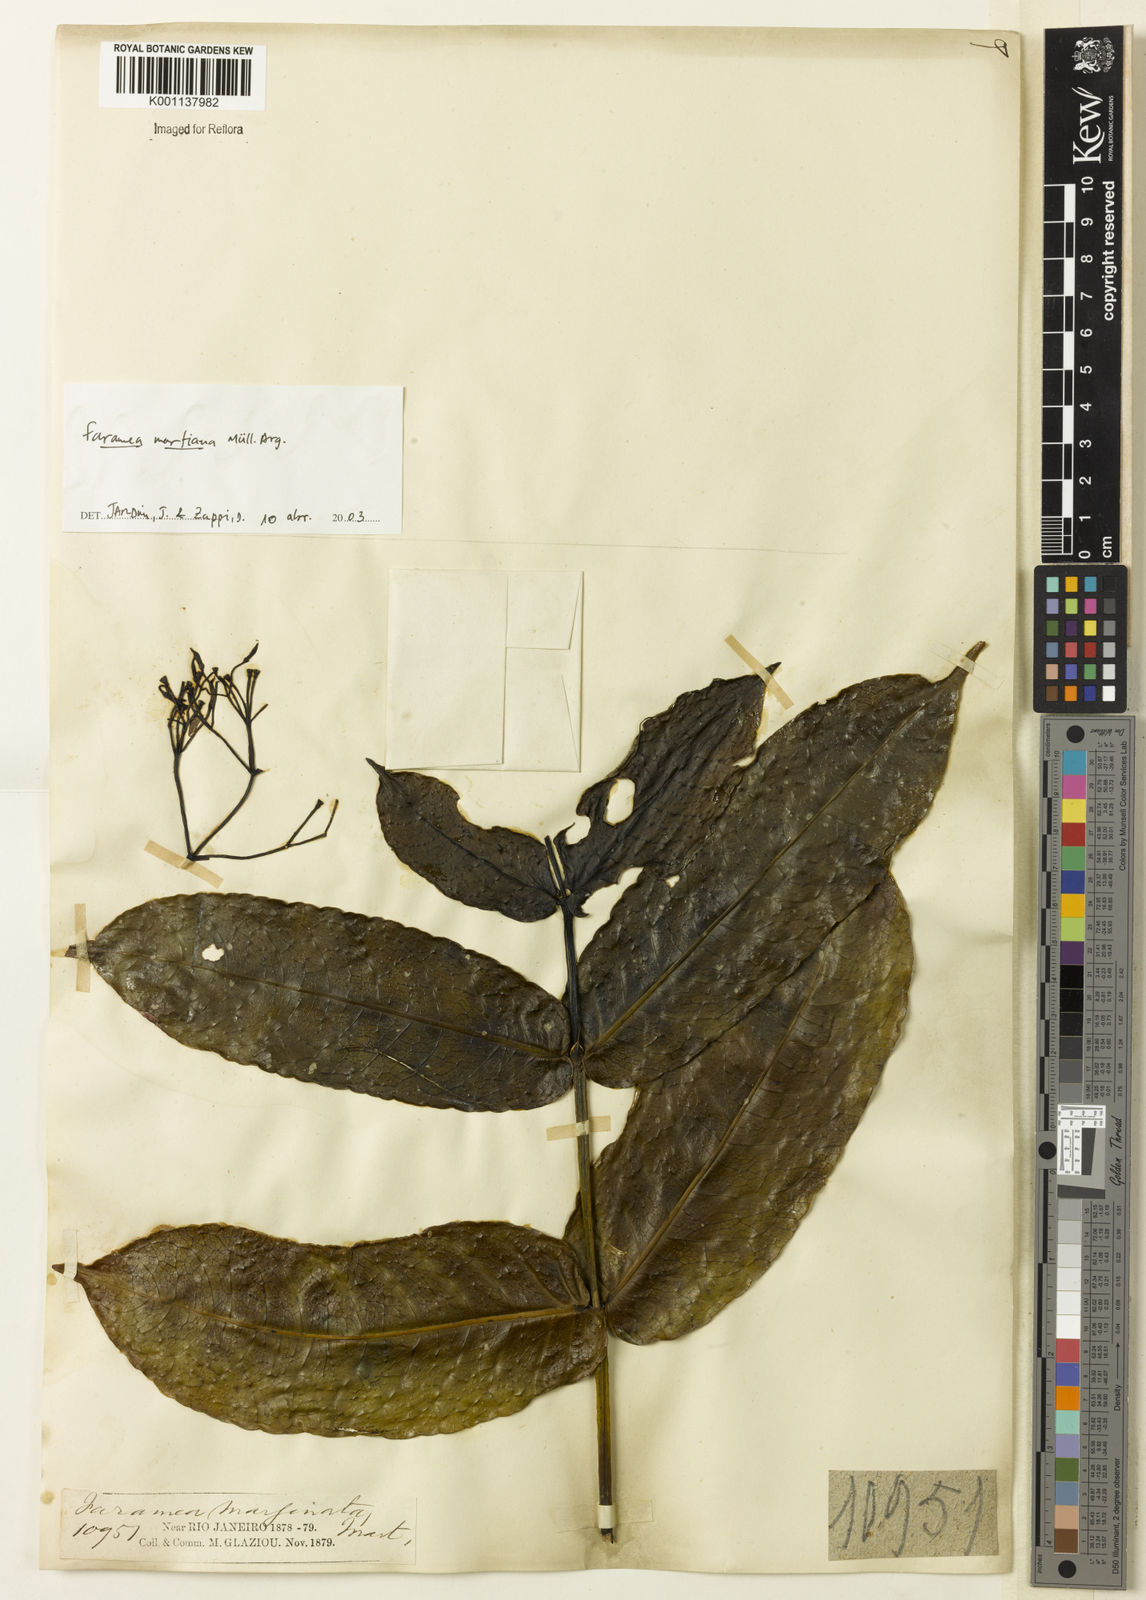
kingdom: Plantae
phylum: Tracheophyta
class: Magnoliopsida
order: Gentianales
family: Rubiaceae
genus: Faramea
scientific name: Faramea
